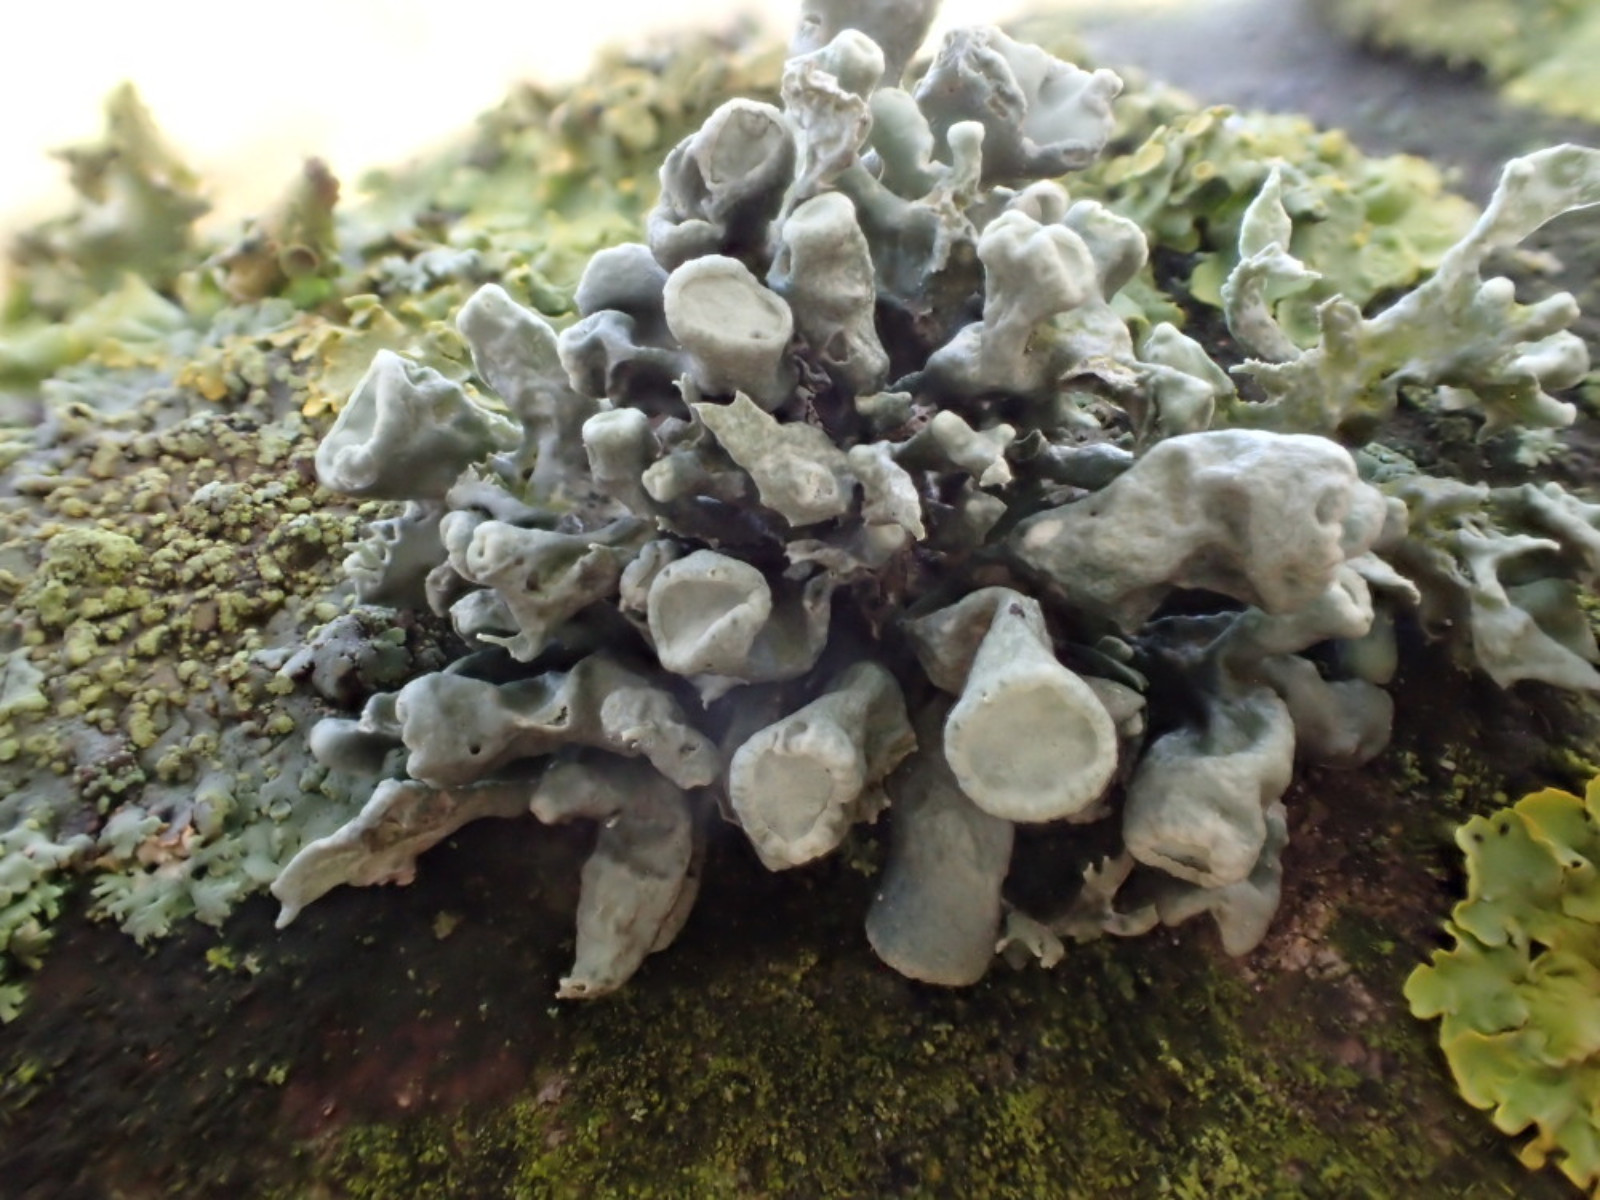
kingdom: Fungi
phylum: Ascomycota
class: Lecanoromycetes
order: Lecanorales
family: Ramalinaceae
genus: Ramalina
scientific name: Ramalina fastigiata
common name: tue-grenlav
